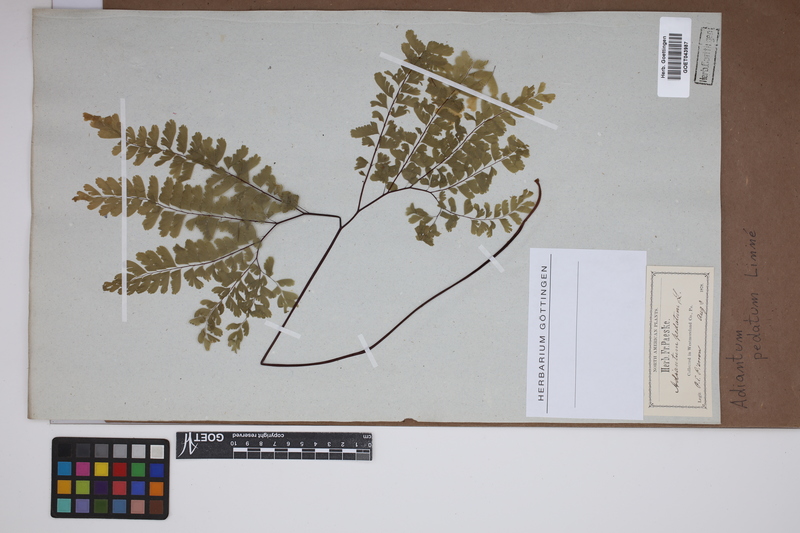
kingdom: Plantae
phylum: Tracheophyta
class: Polypodiopsida
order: Polypodiales
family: Pteridaceae
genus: Adiantum
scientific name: Adiantum pedatum
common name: Five-finger fern
